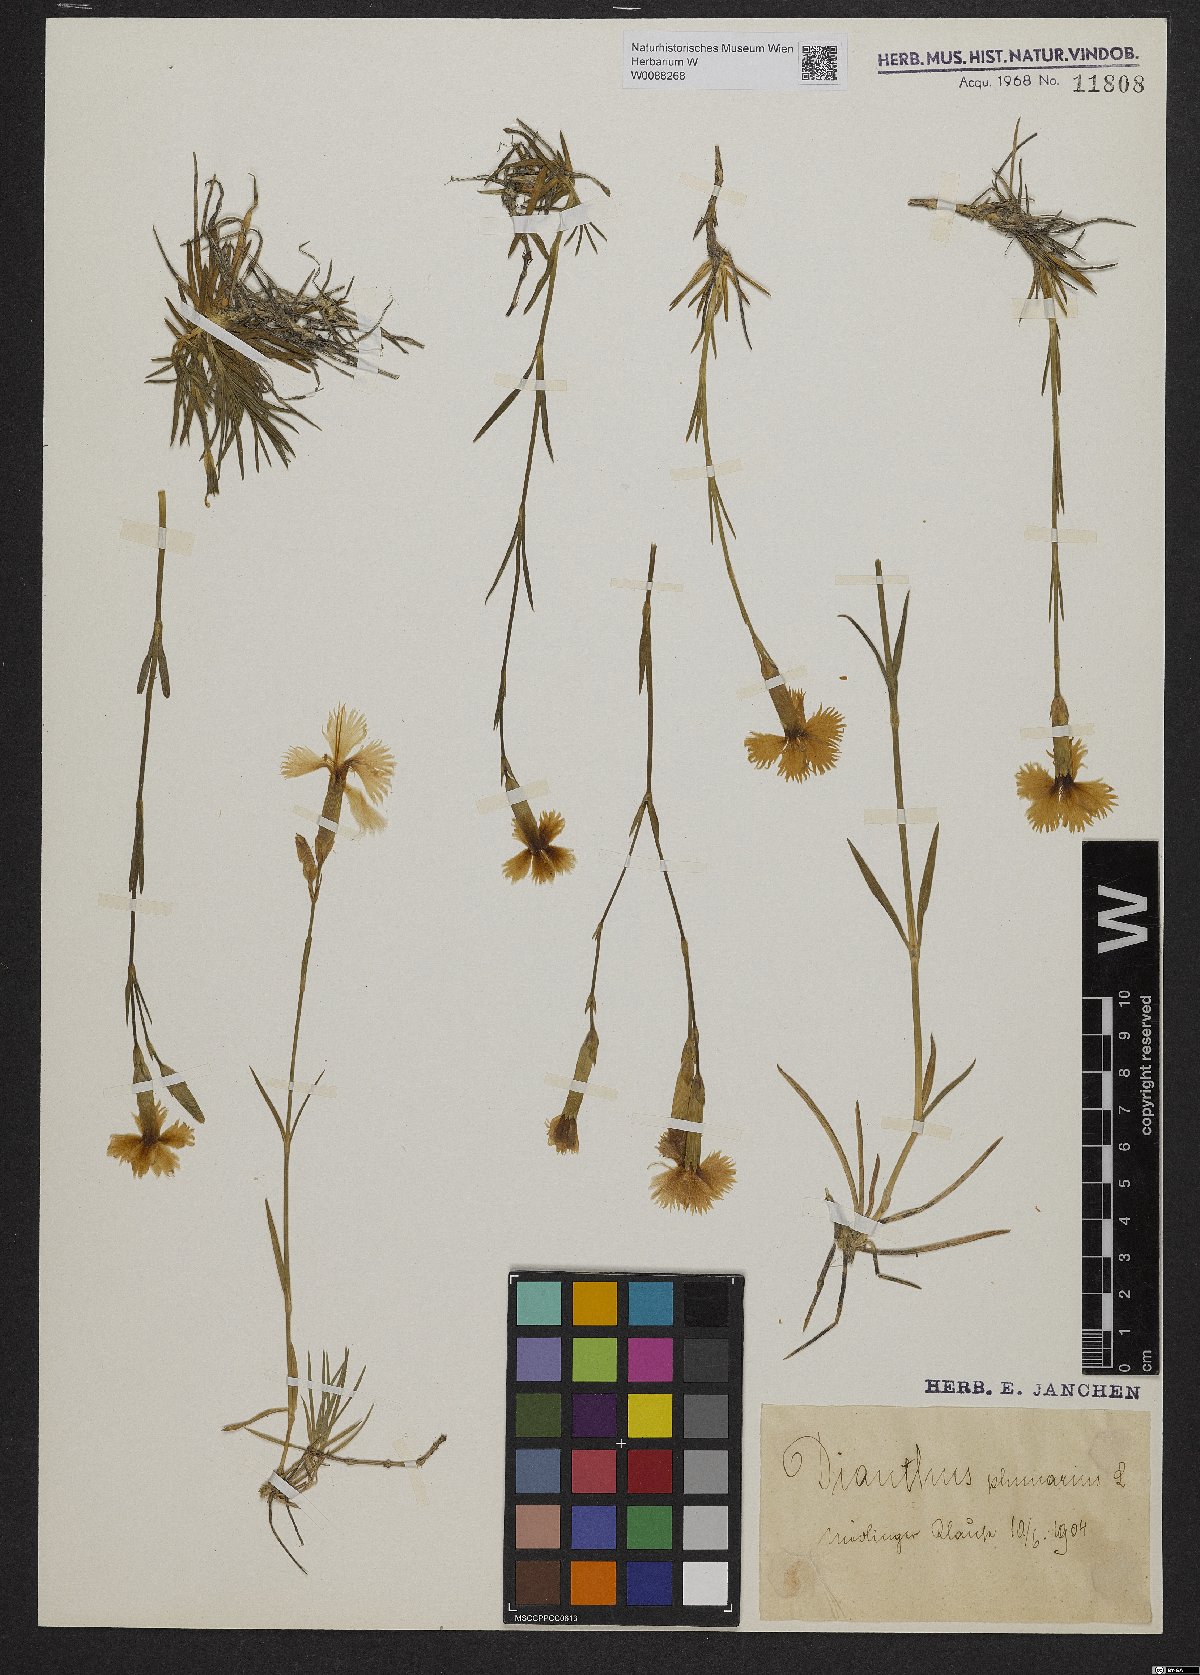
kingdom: Plantae
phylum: Tracheophyta
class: Magnoliopsida
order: Caryophyllales
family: Caryophyllaceae
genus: Dianthus
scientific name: Dianthus plumarius
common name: Pink
